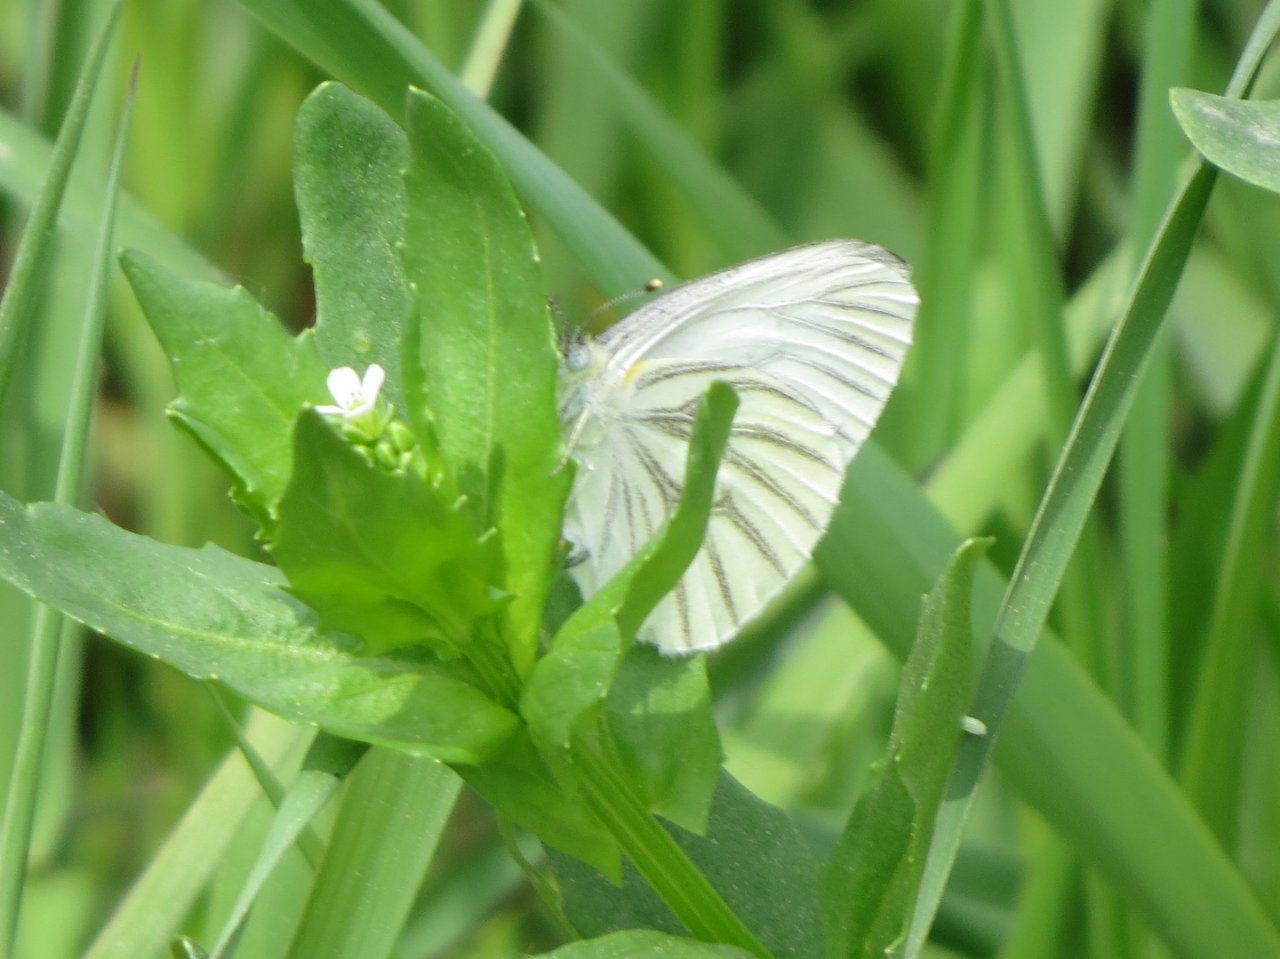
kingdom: Animalia
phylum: Arthropoda
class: Insecta
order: Lepidoptera
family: Pieridae
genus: Pieris
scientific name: Pieris oleracea
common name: Mustard White
